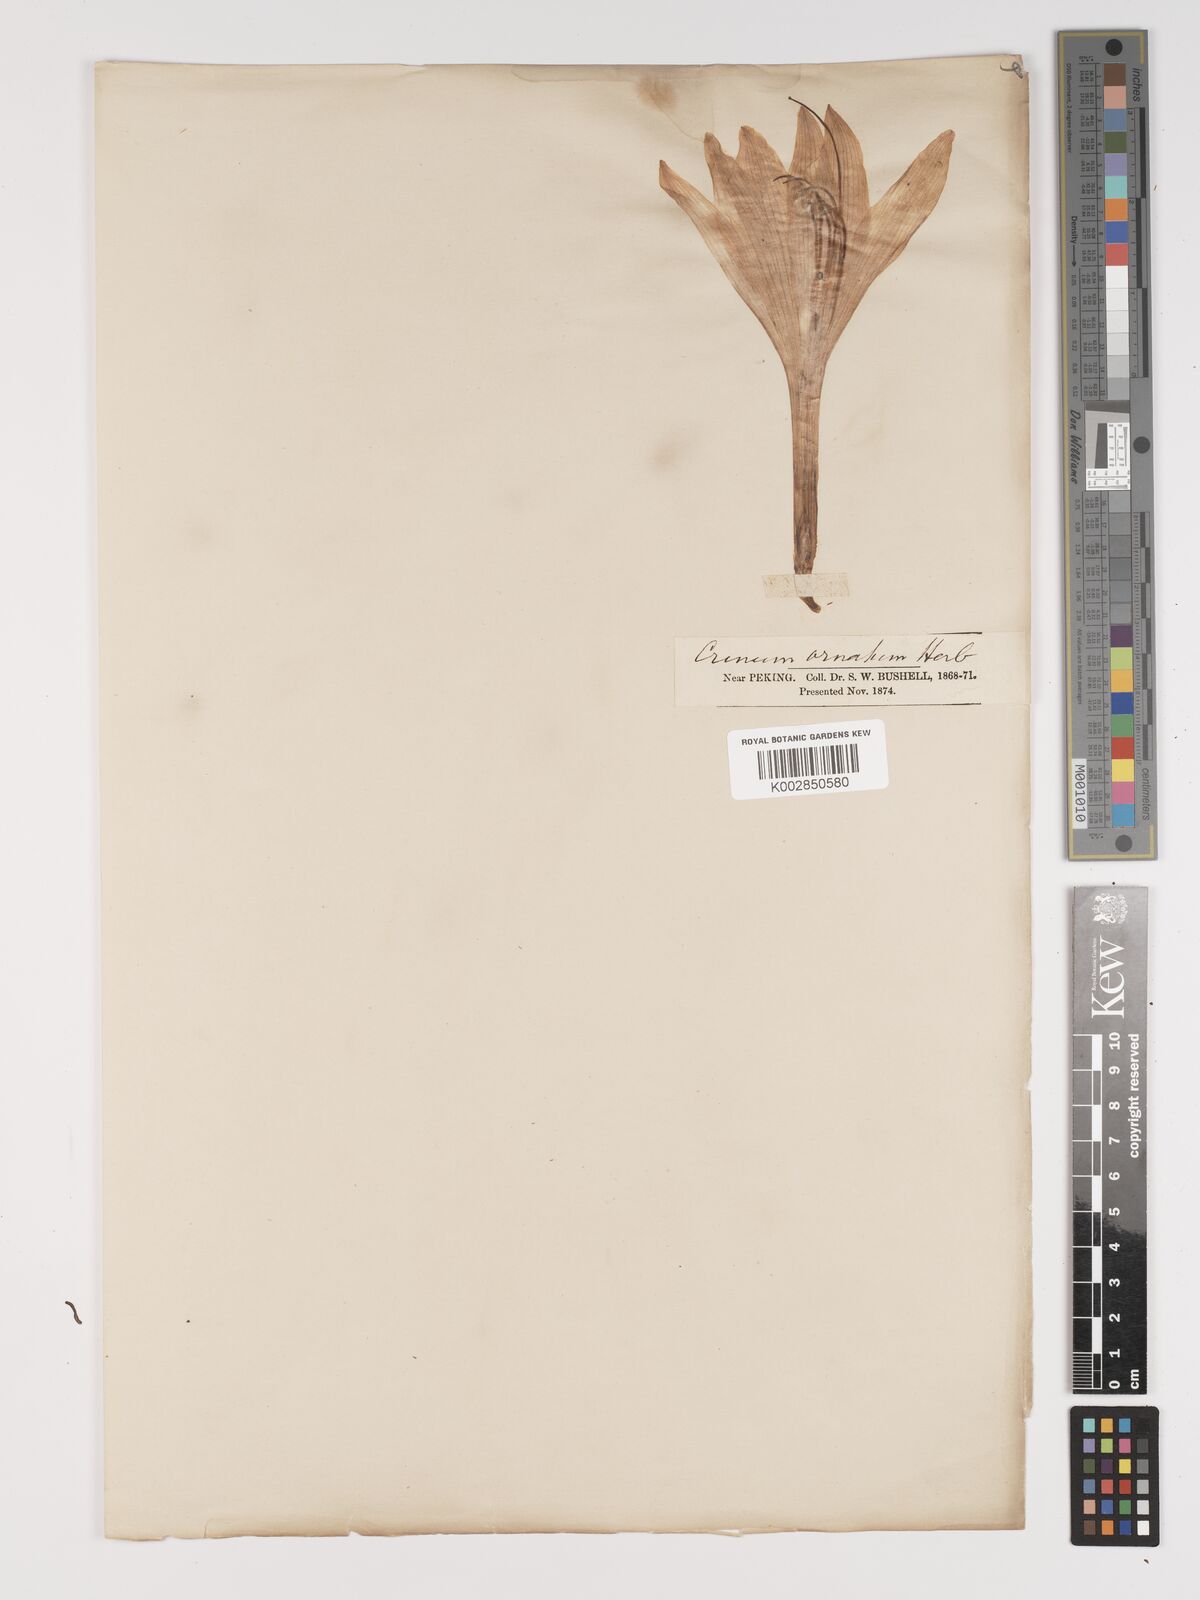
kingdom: Plantae
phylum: Tracheophyta
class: Liliopsida
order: Asparagales
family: Amaryllidaceae
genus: Crinum
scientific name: Crinum
